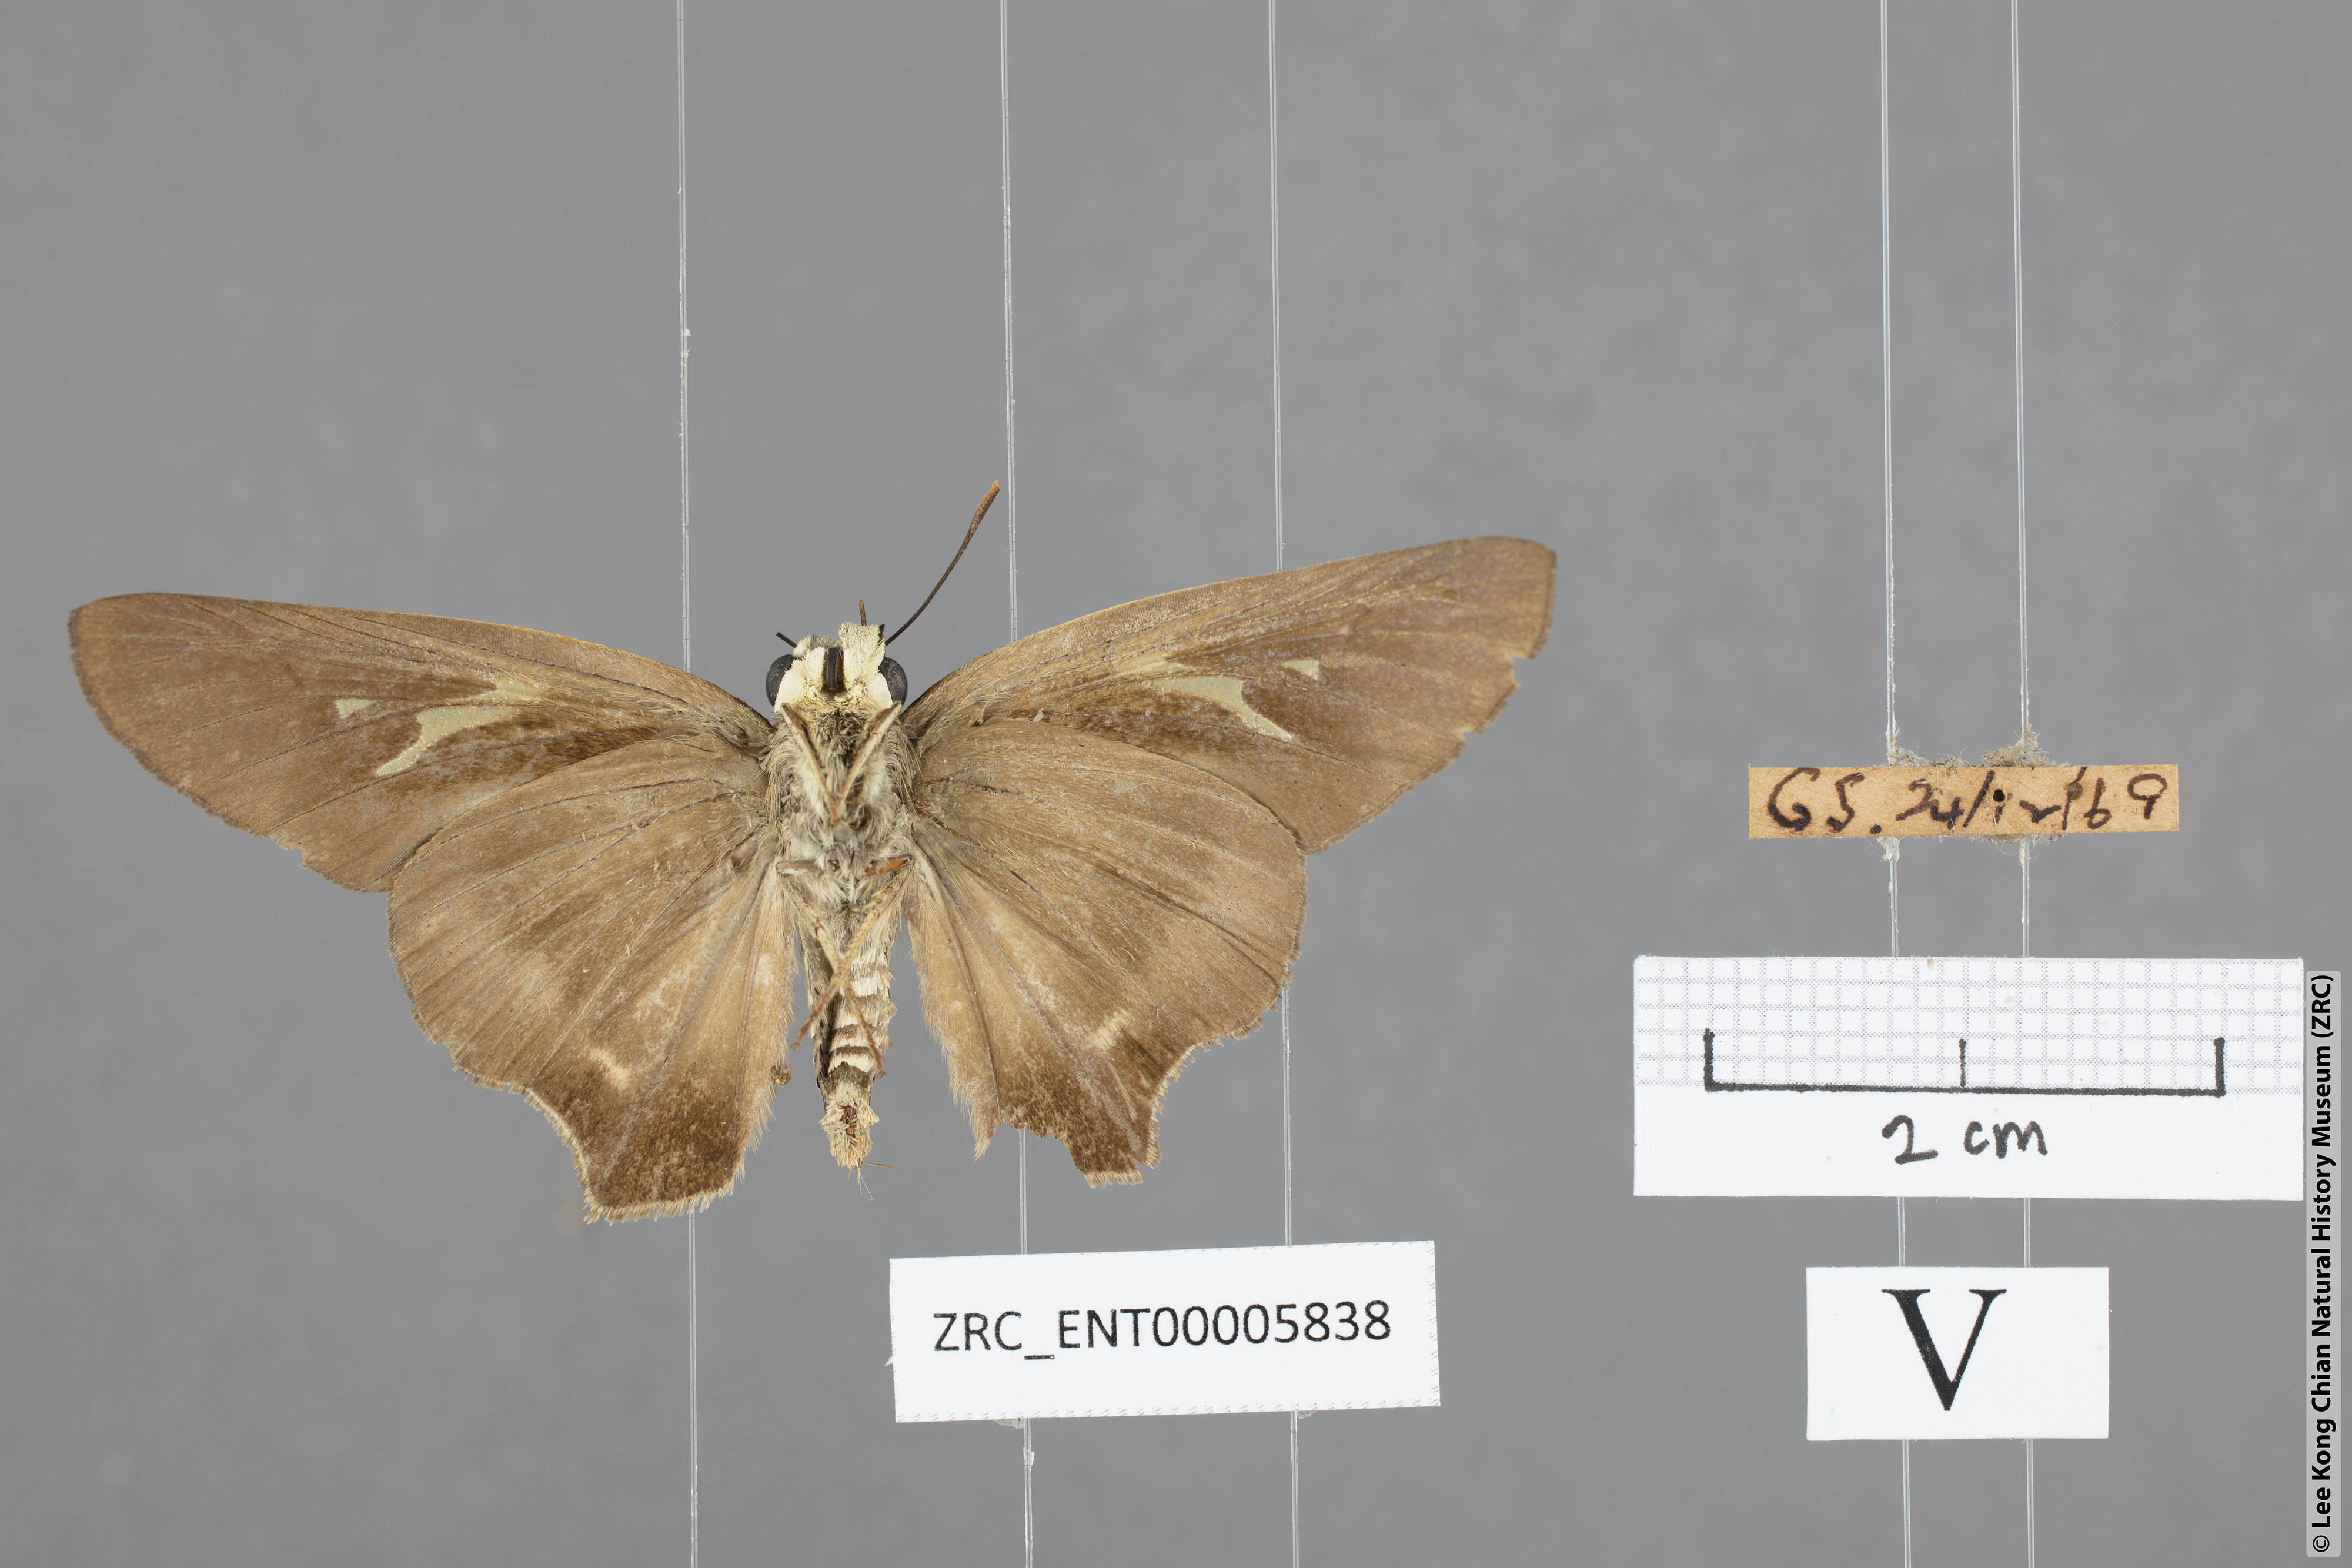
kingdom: Animalia
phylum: Arthropoda
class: Insecta
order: Lepidoptera
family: Hesperiidae
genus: Badamia
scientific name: Badamia exclamationis
